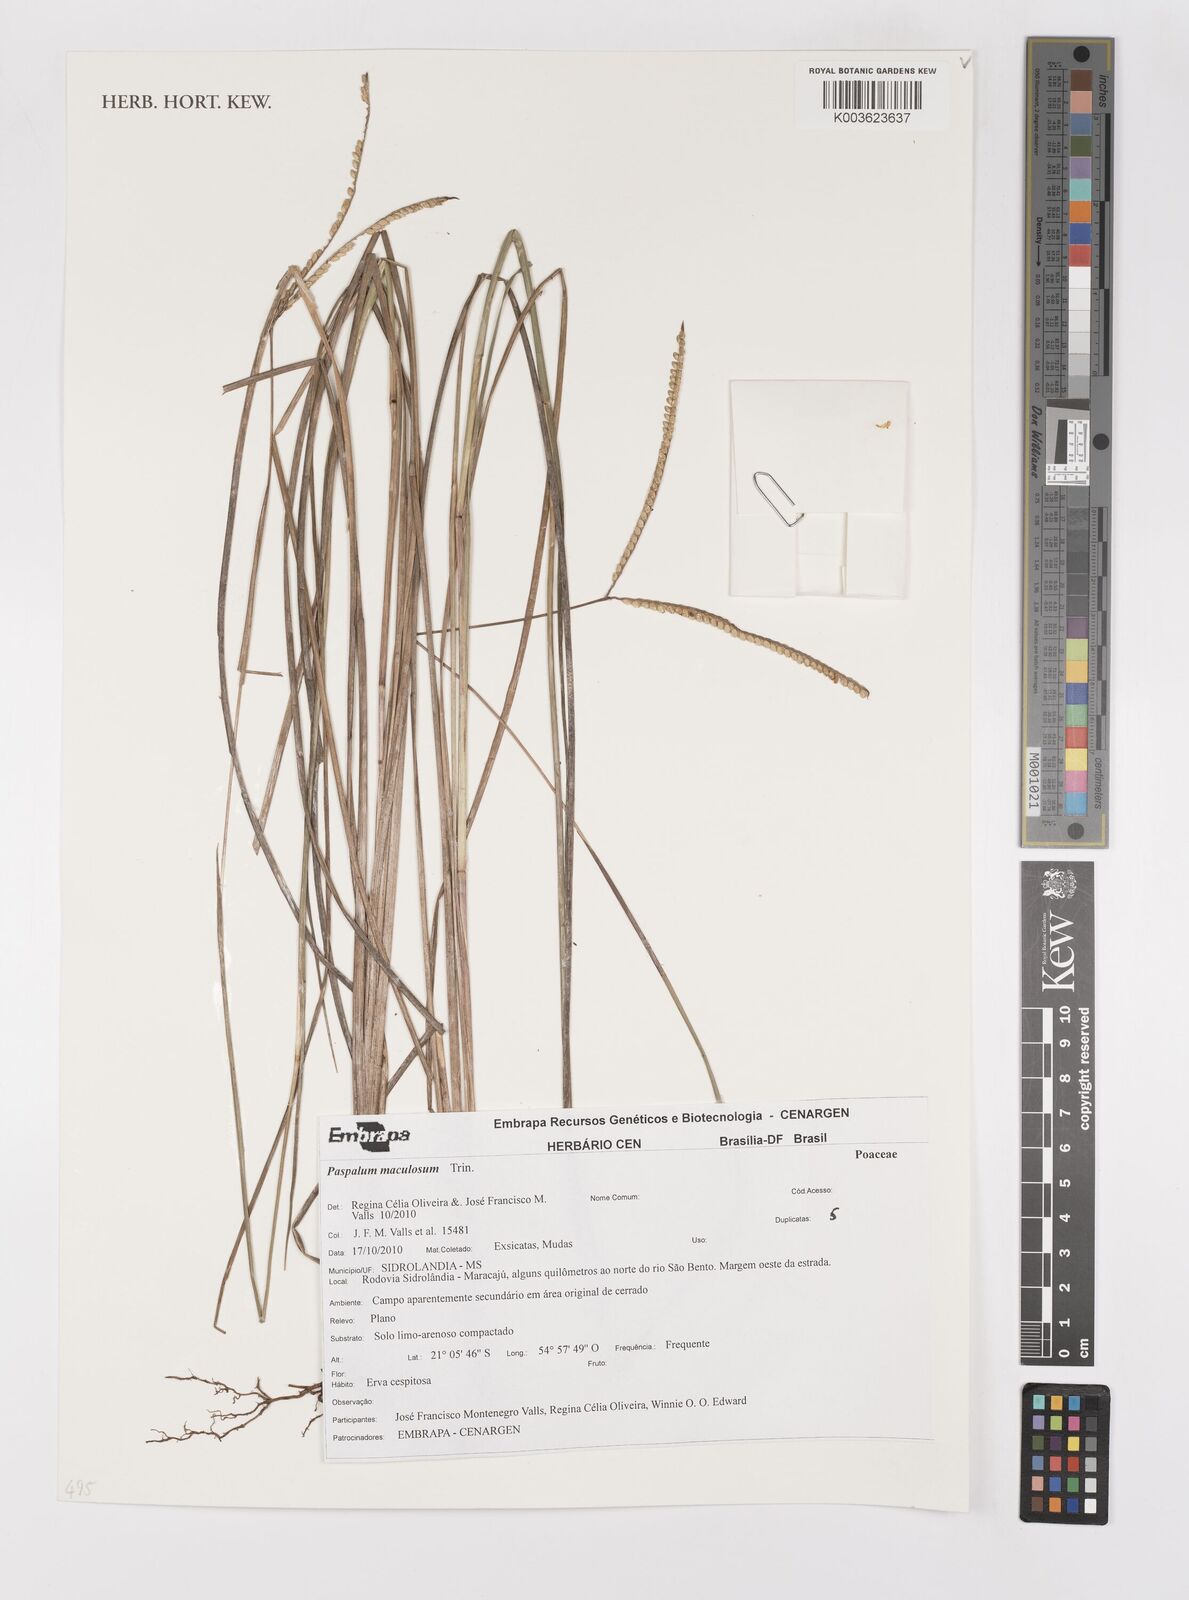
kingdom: Plantae
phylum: Tracheophyta
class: Liliopsida
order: Poales
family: Poaceae
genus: Paspalum
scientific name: Paspalum maculosum
